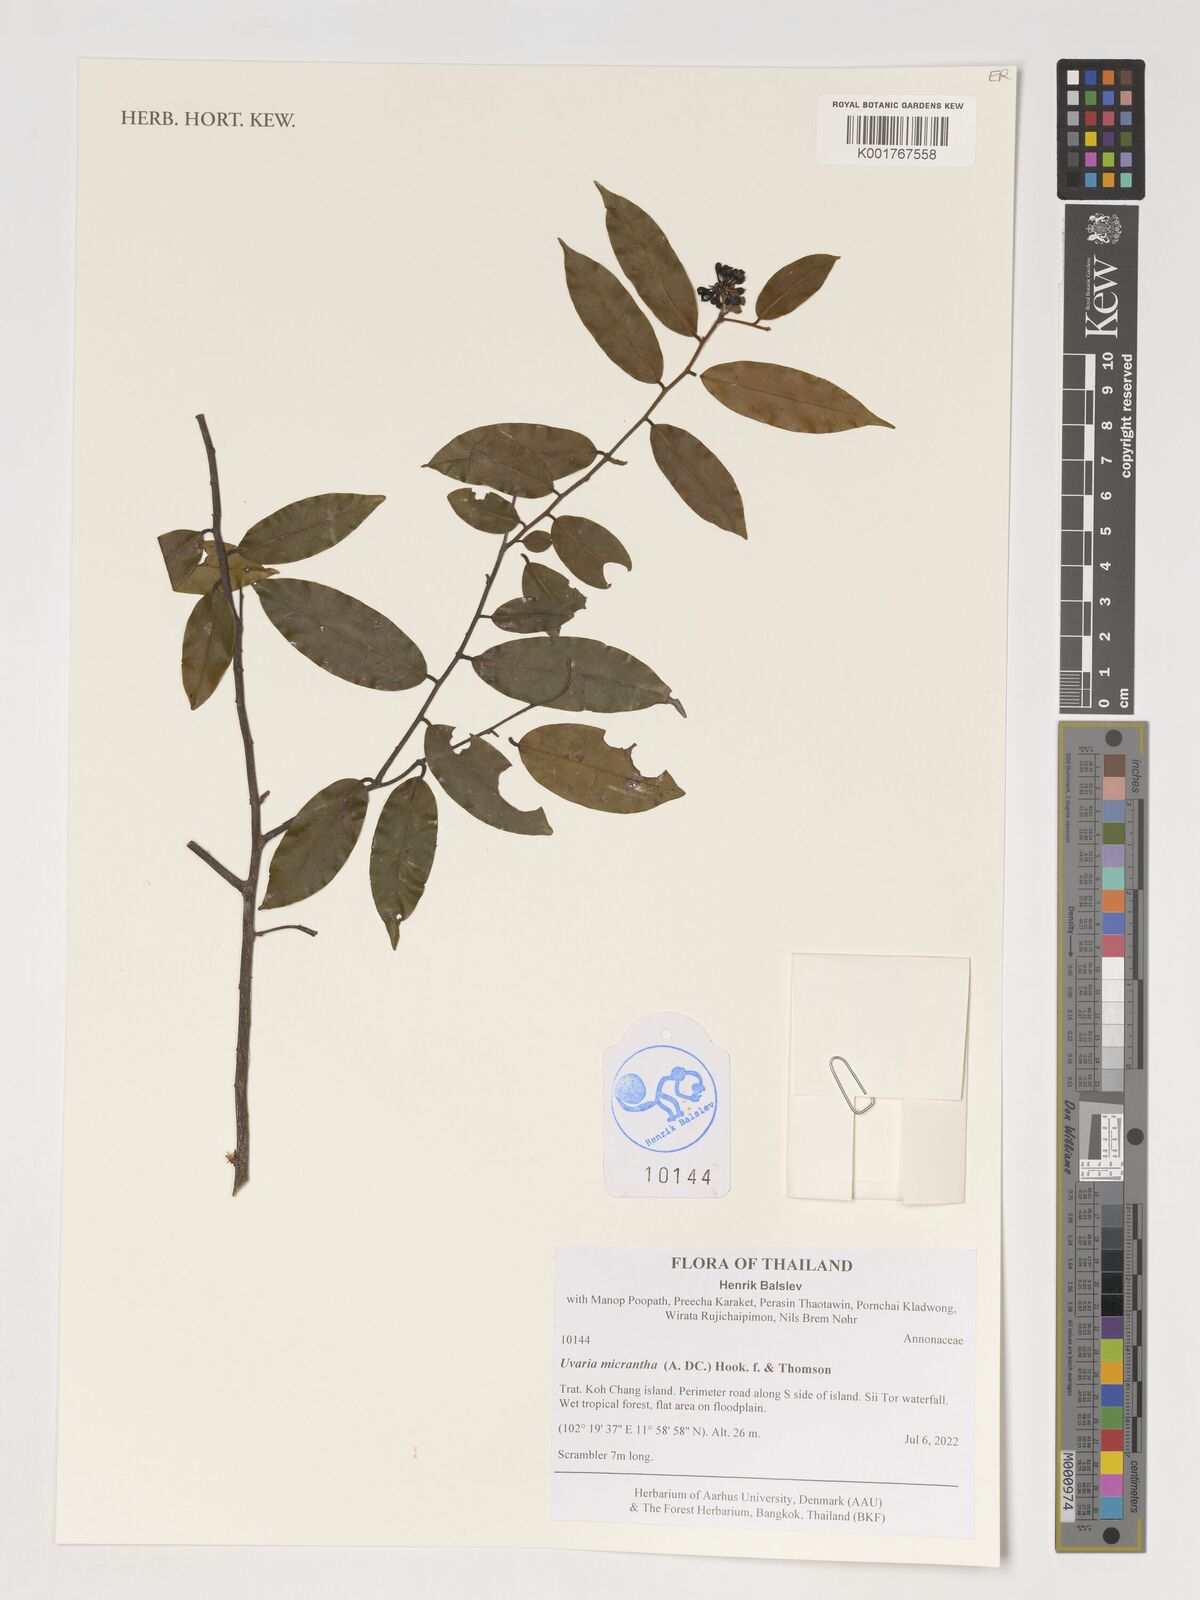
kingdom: Plantae
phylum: Tracheophyta
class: Magnoliopsida
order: Magnoliales
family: Annonaceae
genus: Uvaria
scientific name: Uvaria micrantha
